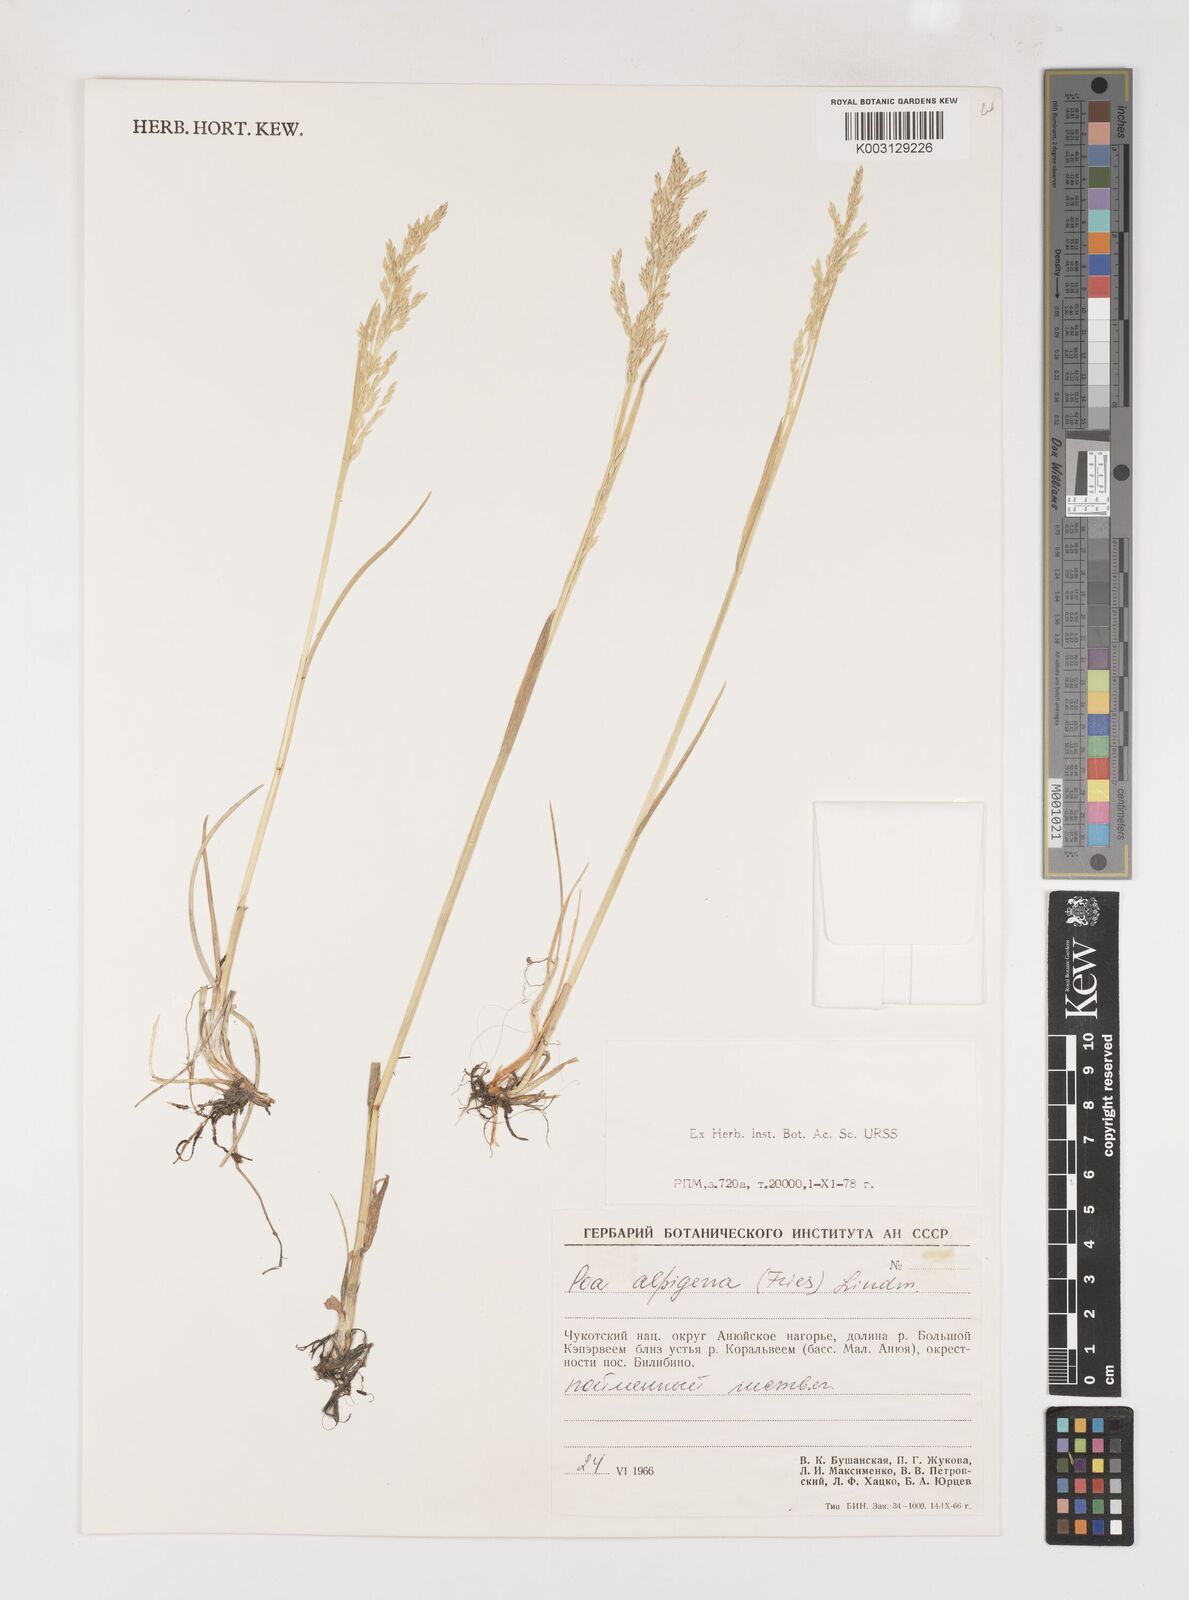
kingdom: Plantae
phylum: Tracheophyta
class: Liliopsida
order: Poales
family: Poaceae
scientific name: Poaceae
